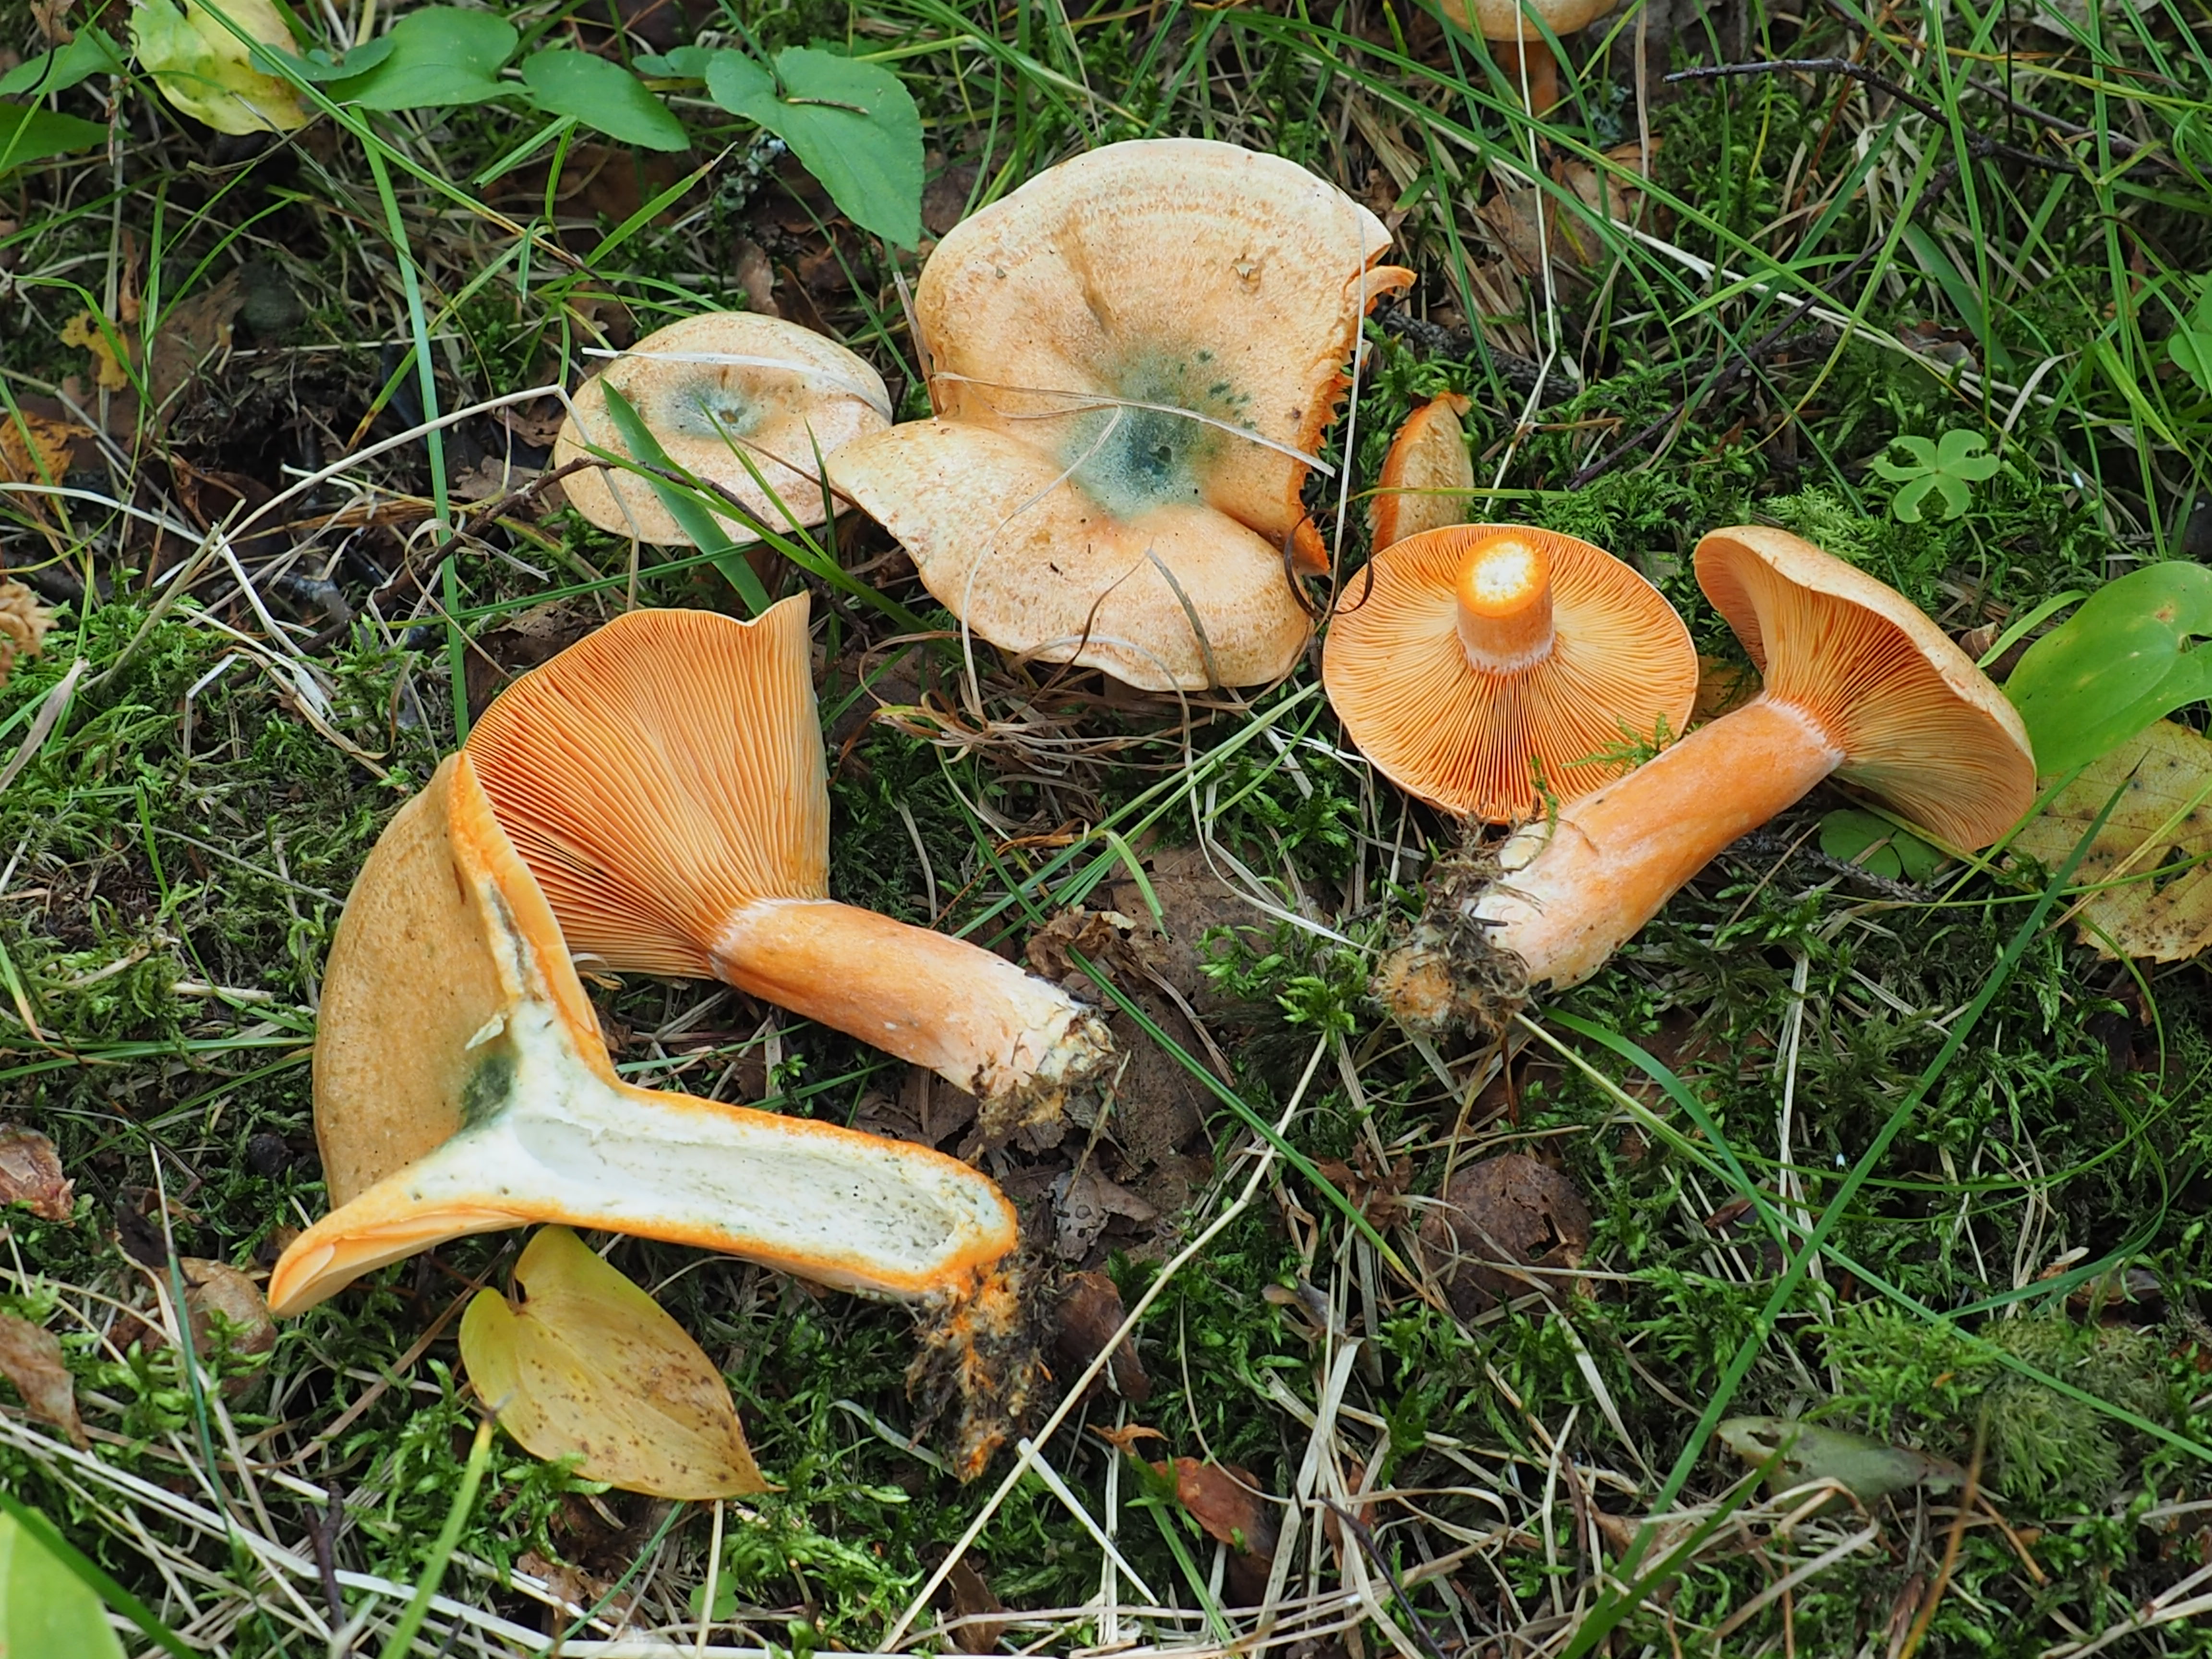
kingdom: Fungi
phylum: Basidiomycota
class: Agaricomycetes
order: Russulales
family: Russulaceae
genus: Lactarius
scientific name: Lactarius deterrimus
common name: False saffron milkcap
